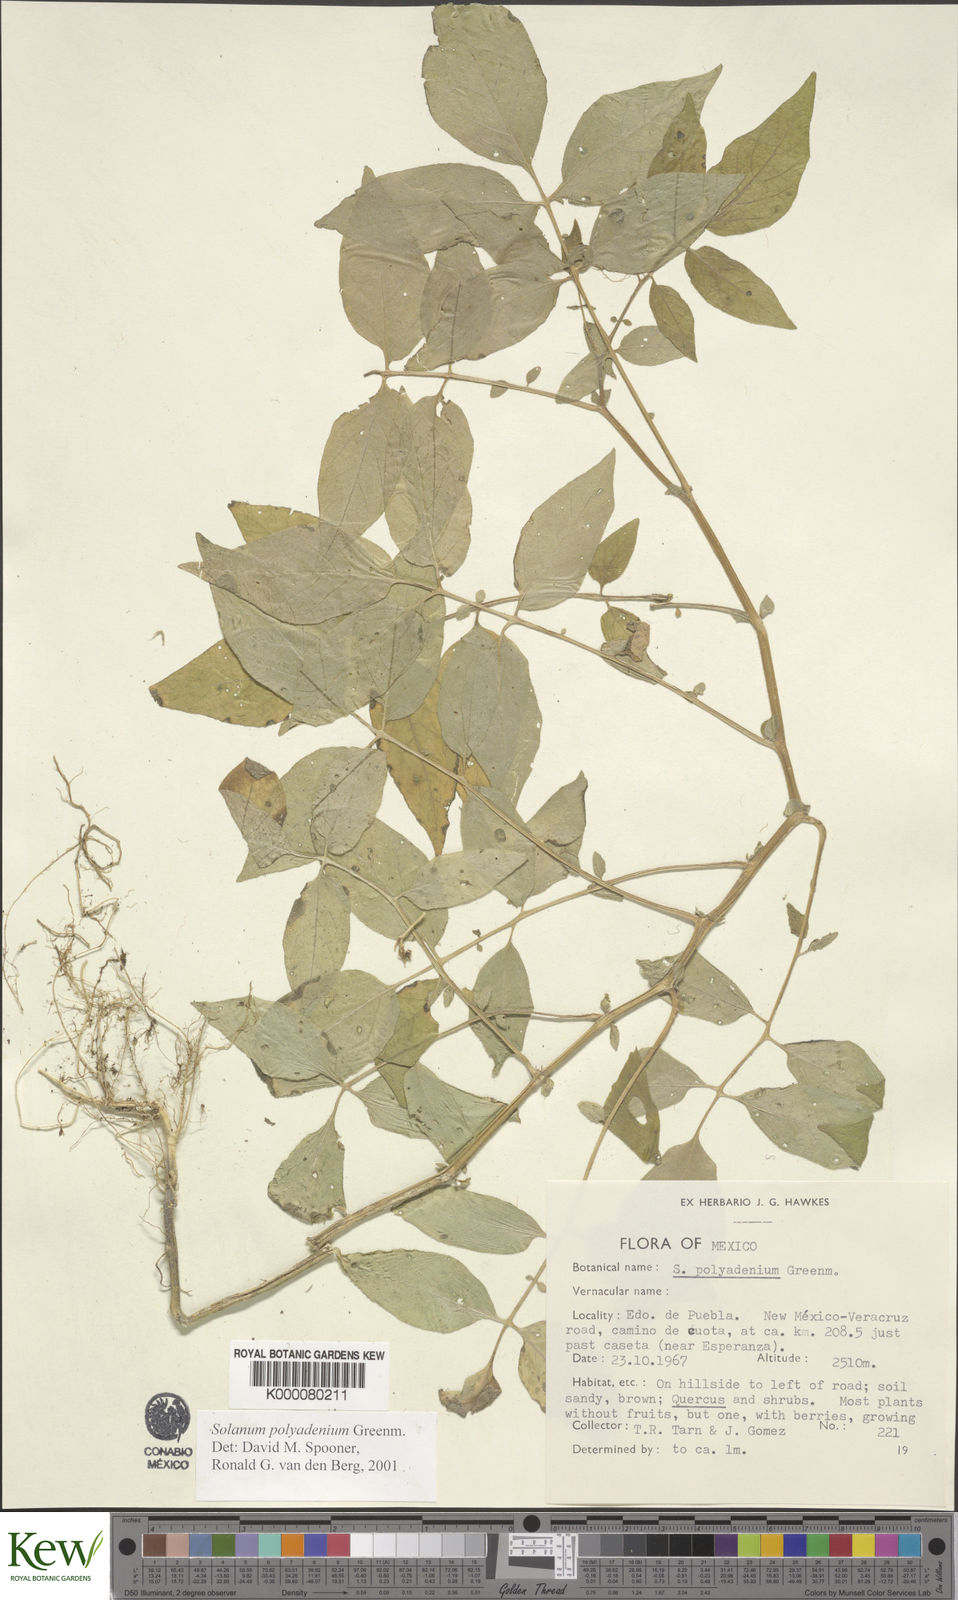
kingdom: Plantae
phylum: Tracheophyta
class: Magnoliopsida
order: Solanales
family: Solanaceae
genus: Solanum
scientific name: Solanum polyadenium
